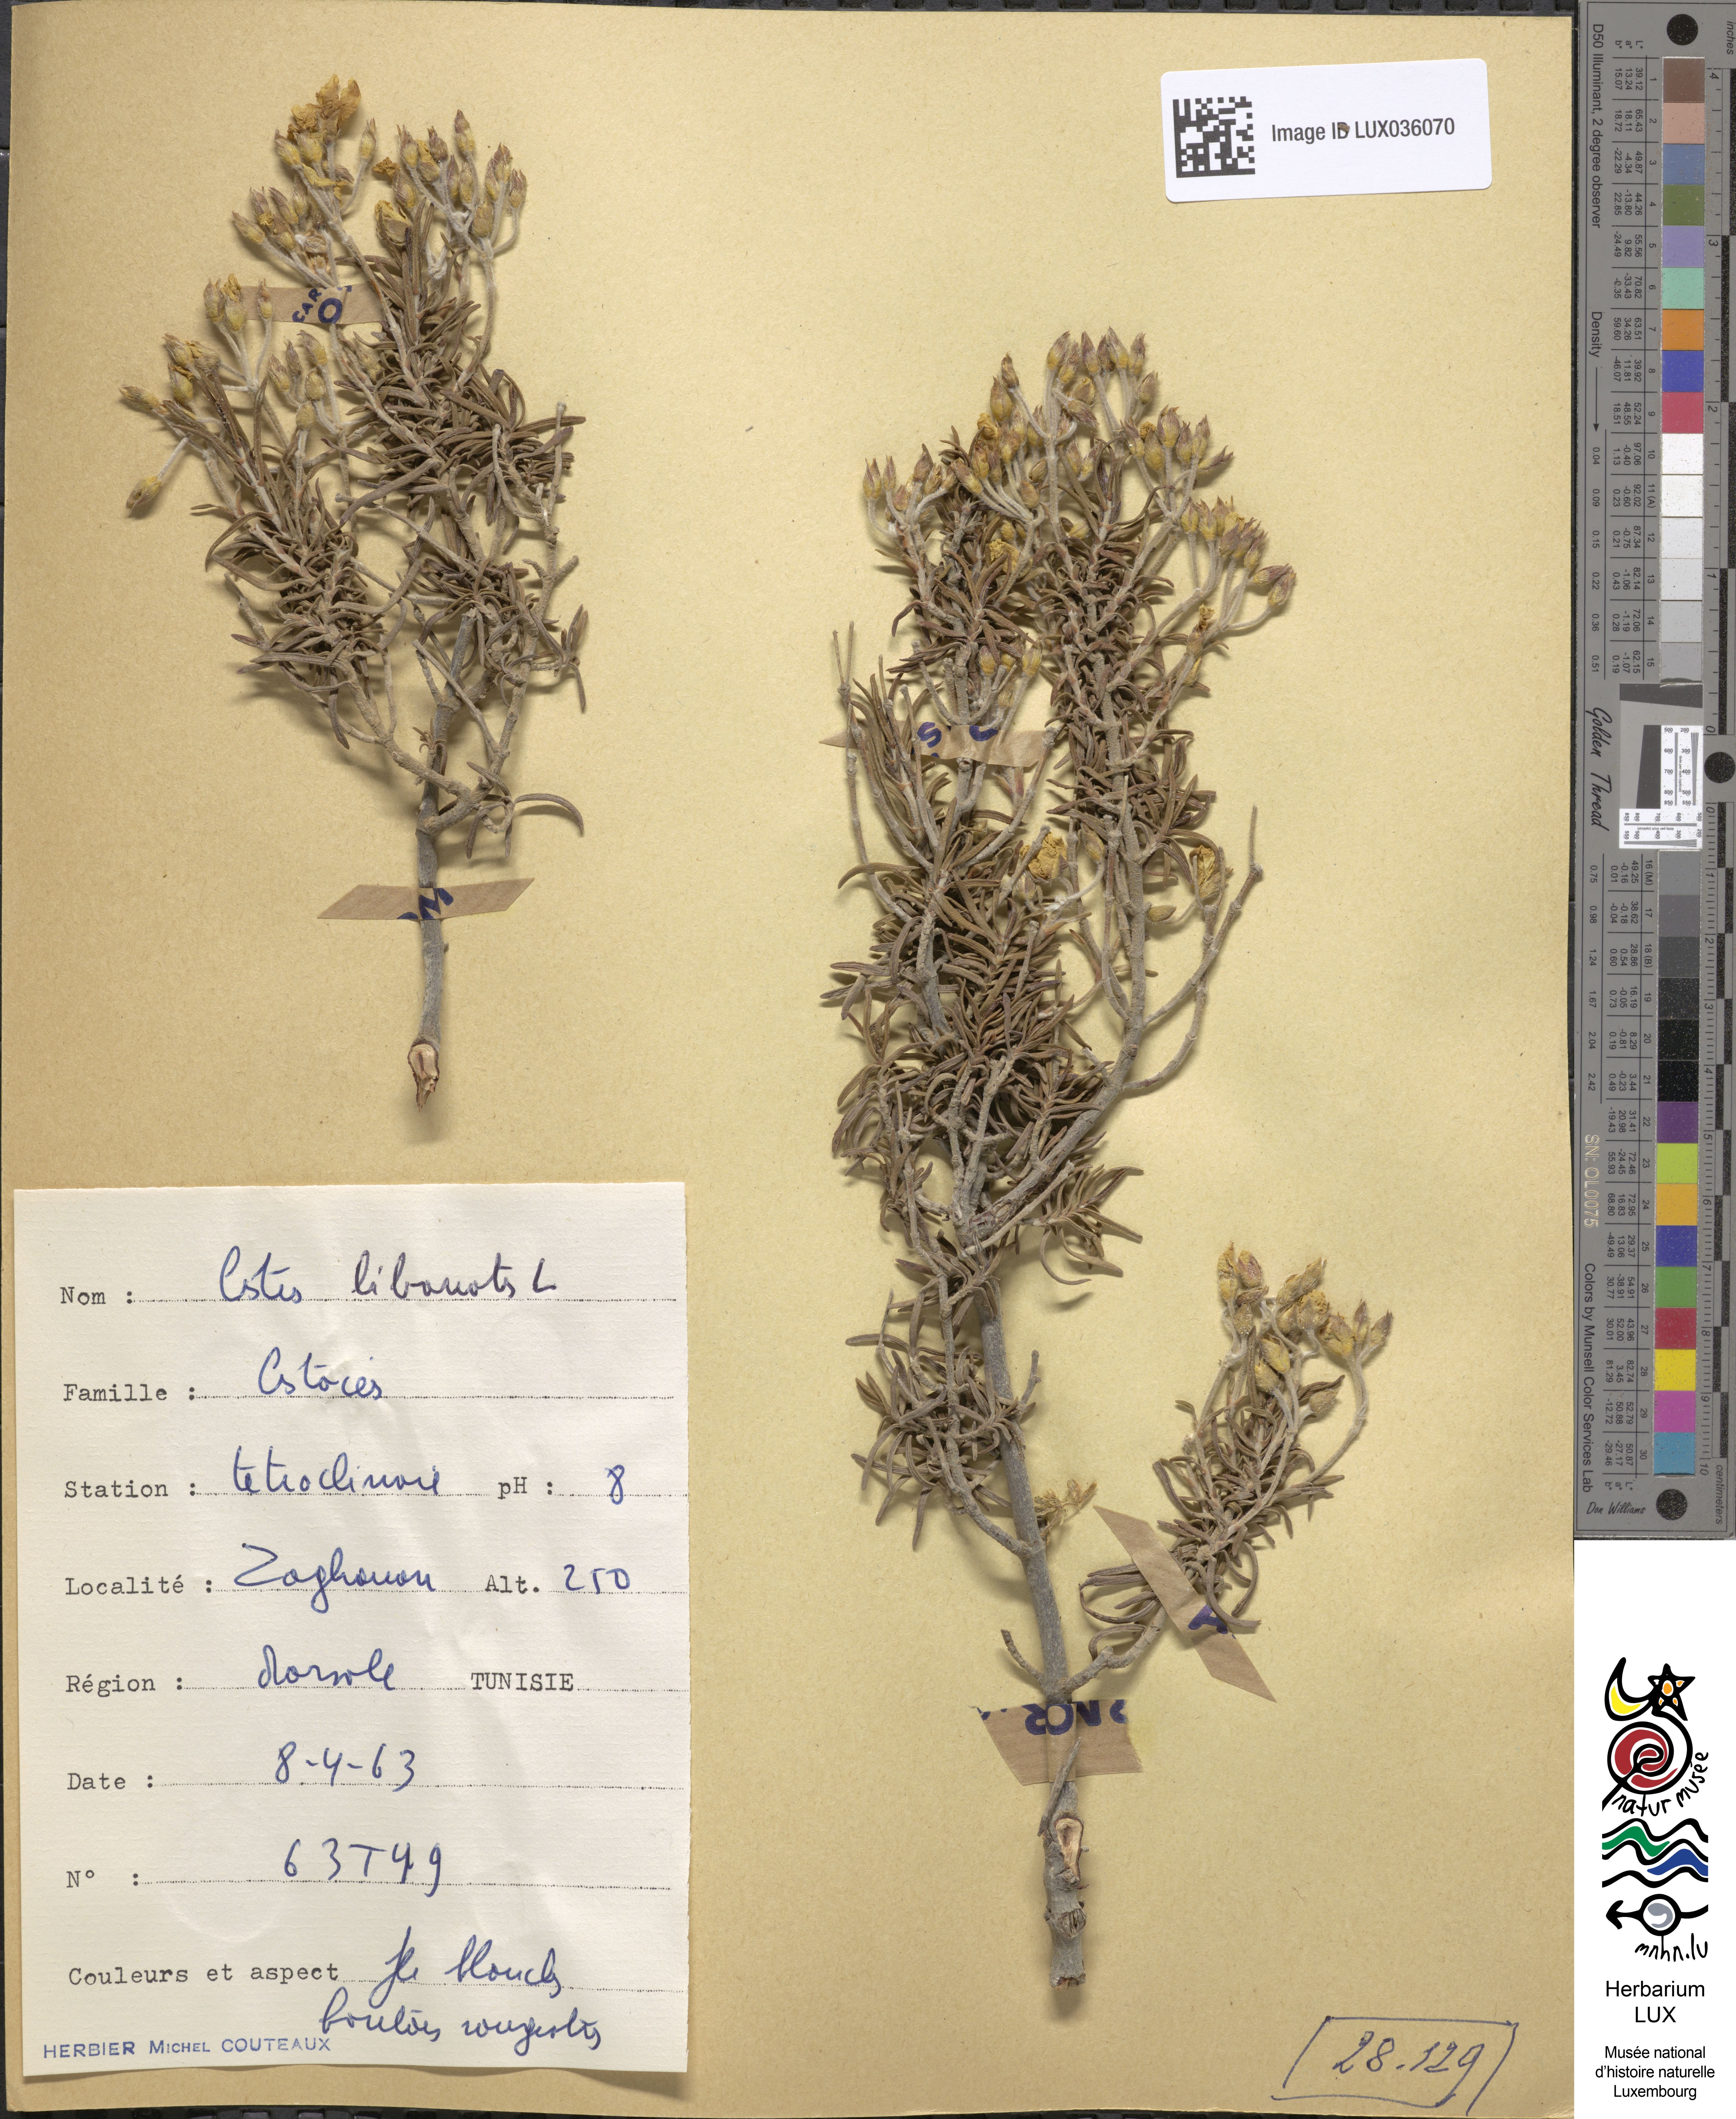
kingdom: Plantae
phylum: Tracheophyta
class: Magnoliopsida
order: Malvales
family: Cistaceae
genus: Cistus
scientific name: Cistus libanotis
